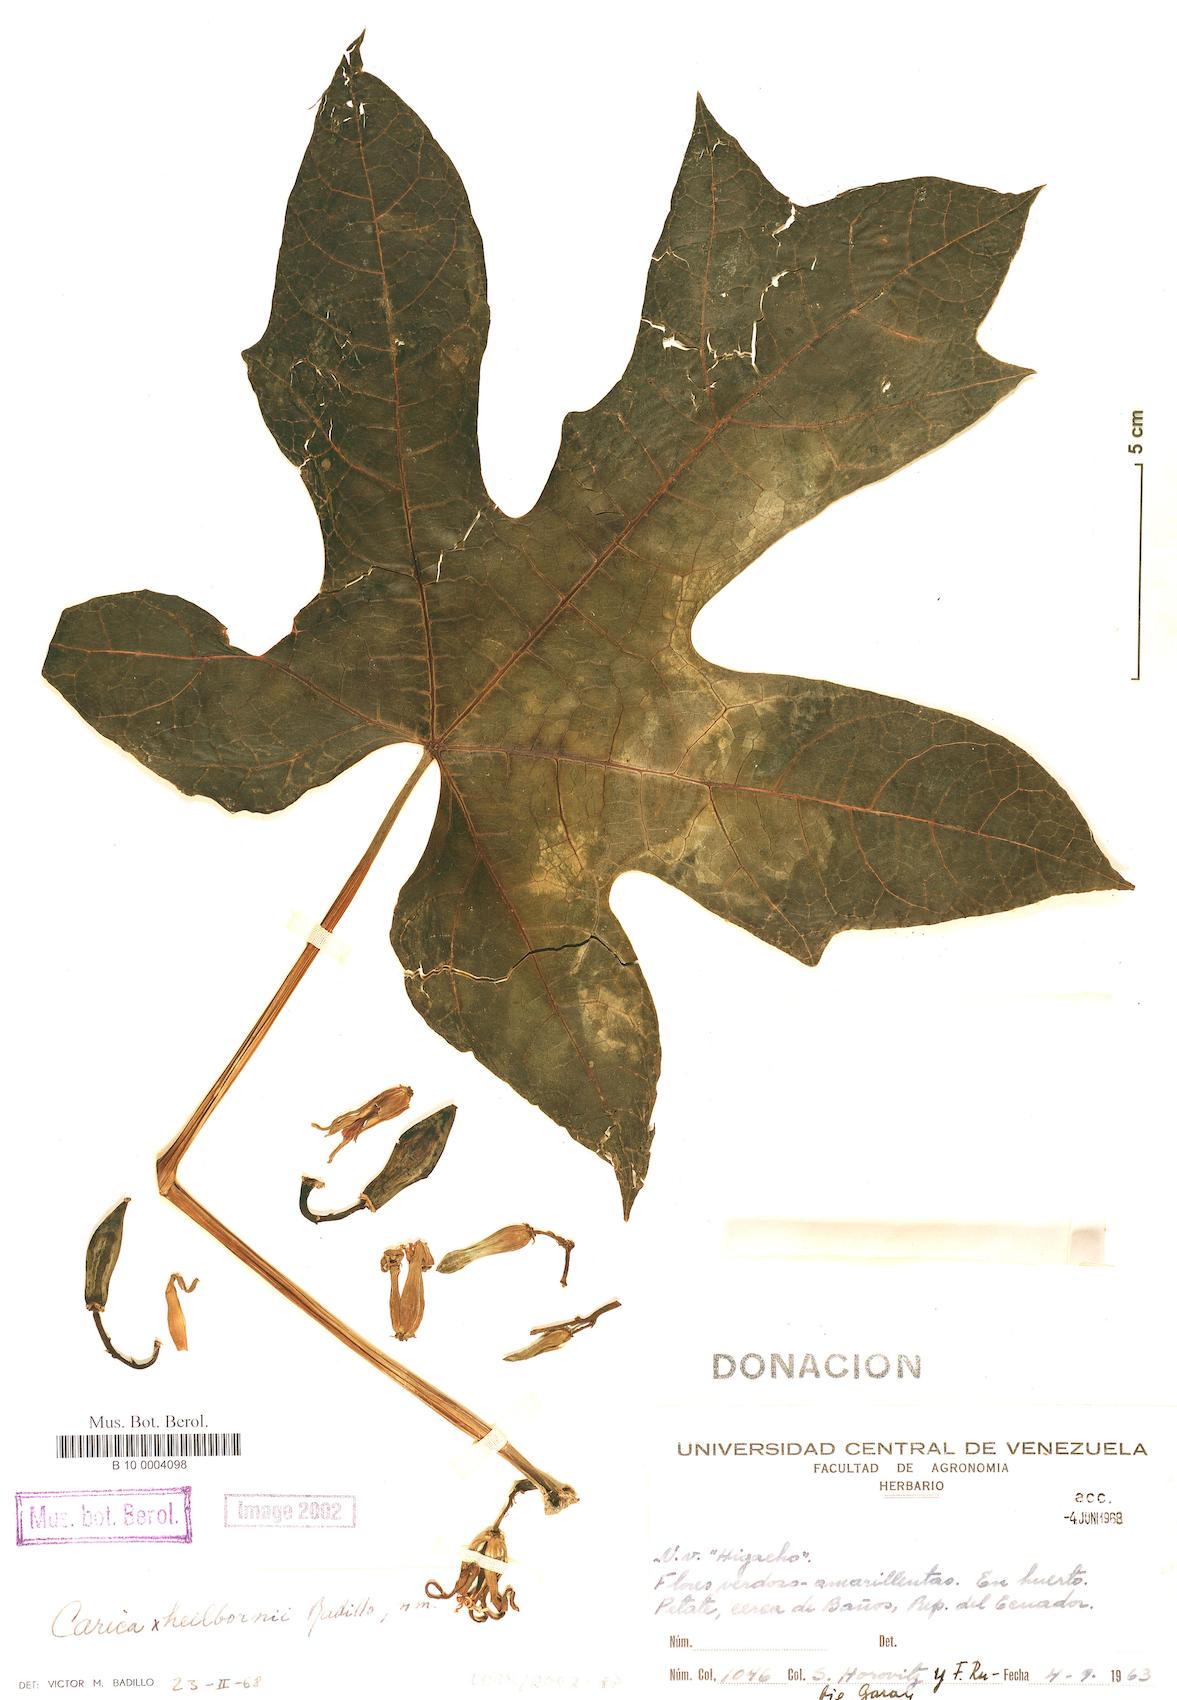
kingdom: Plantae
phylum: Tracheophyta
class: Magnoliopsida
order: Brassicales
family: Caricaceae
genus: Vasconcellea
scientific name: Vasconcellea pentagona
